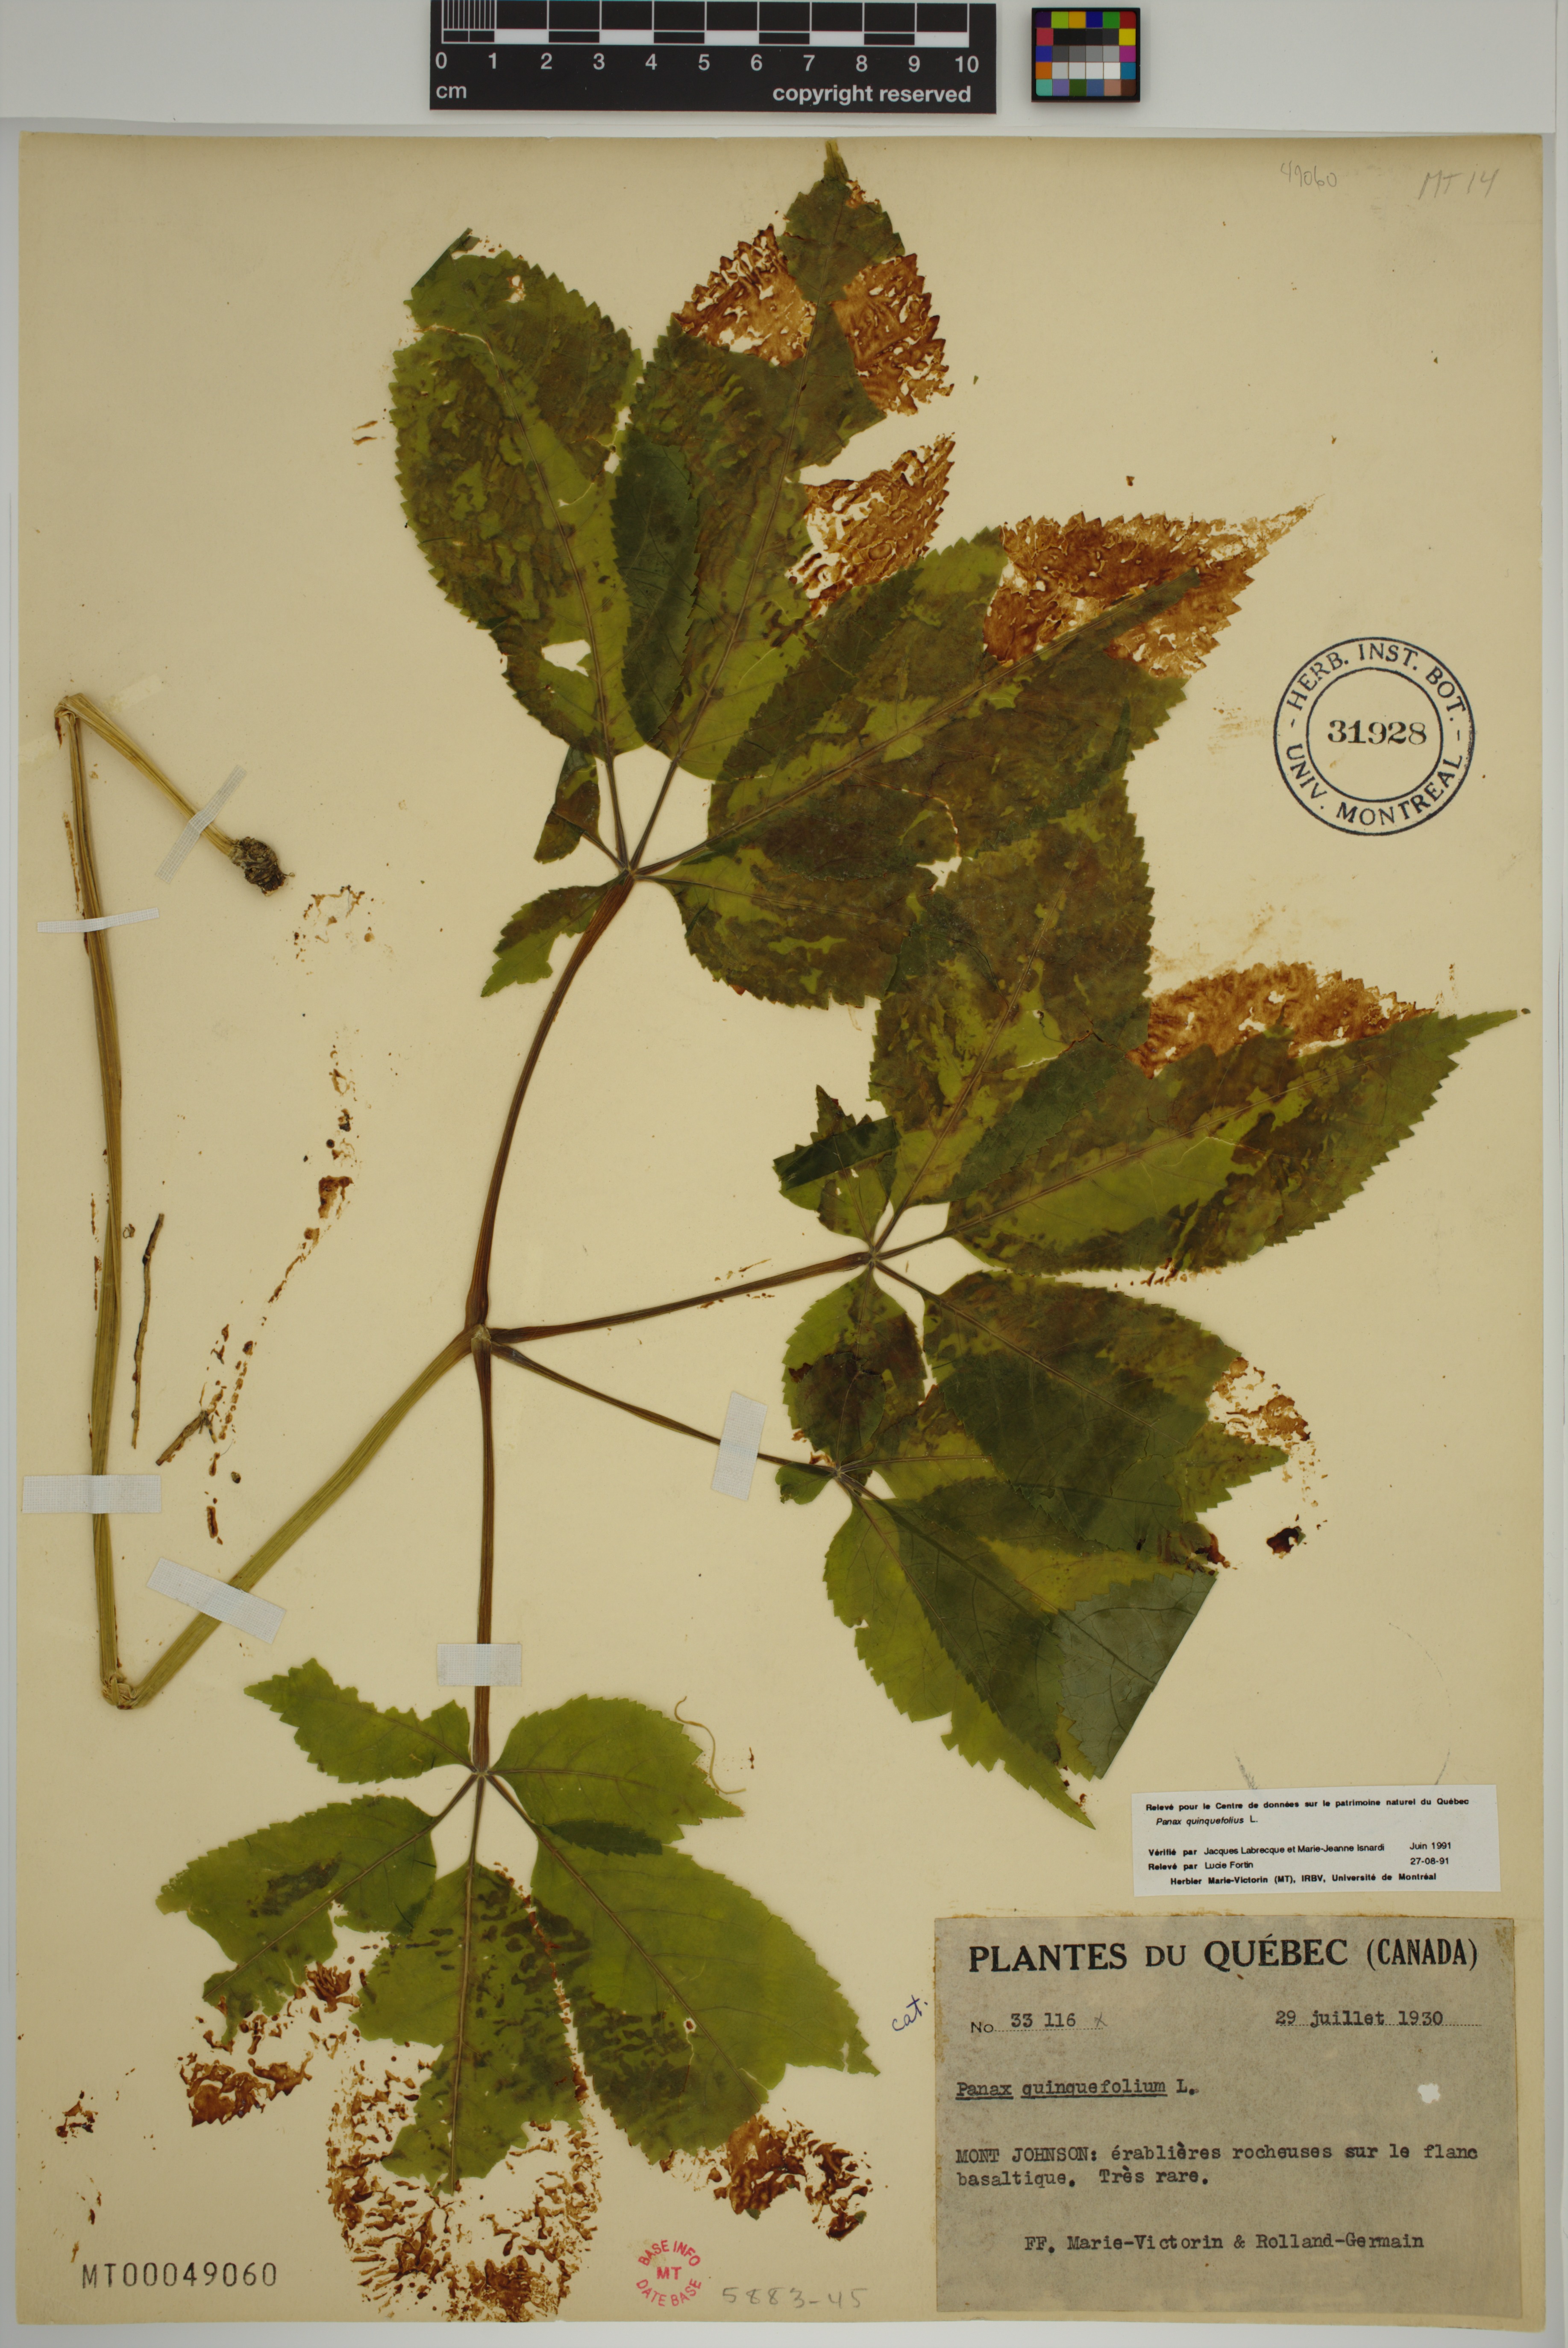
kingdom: Plantae
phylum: Tracheophyta
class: Magnoliopsida
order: Apiales
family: Araliaceae
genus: Panax
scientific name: Panax quinquefolius
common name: American ginseng
